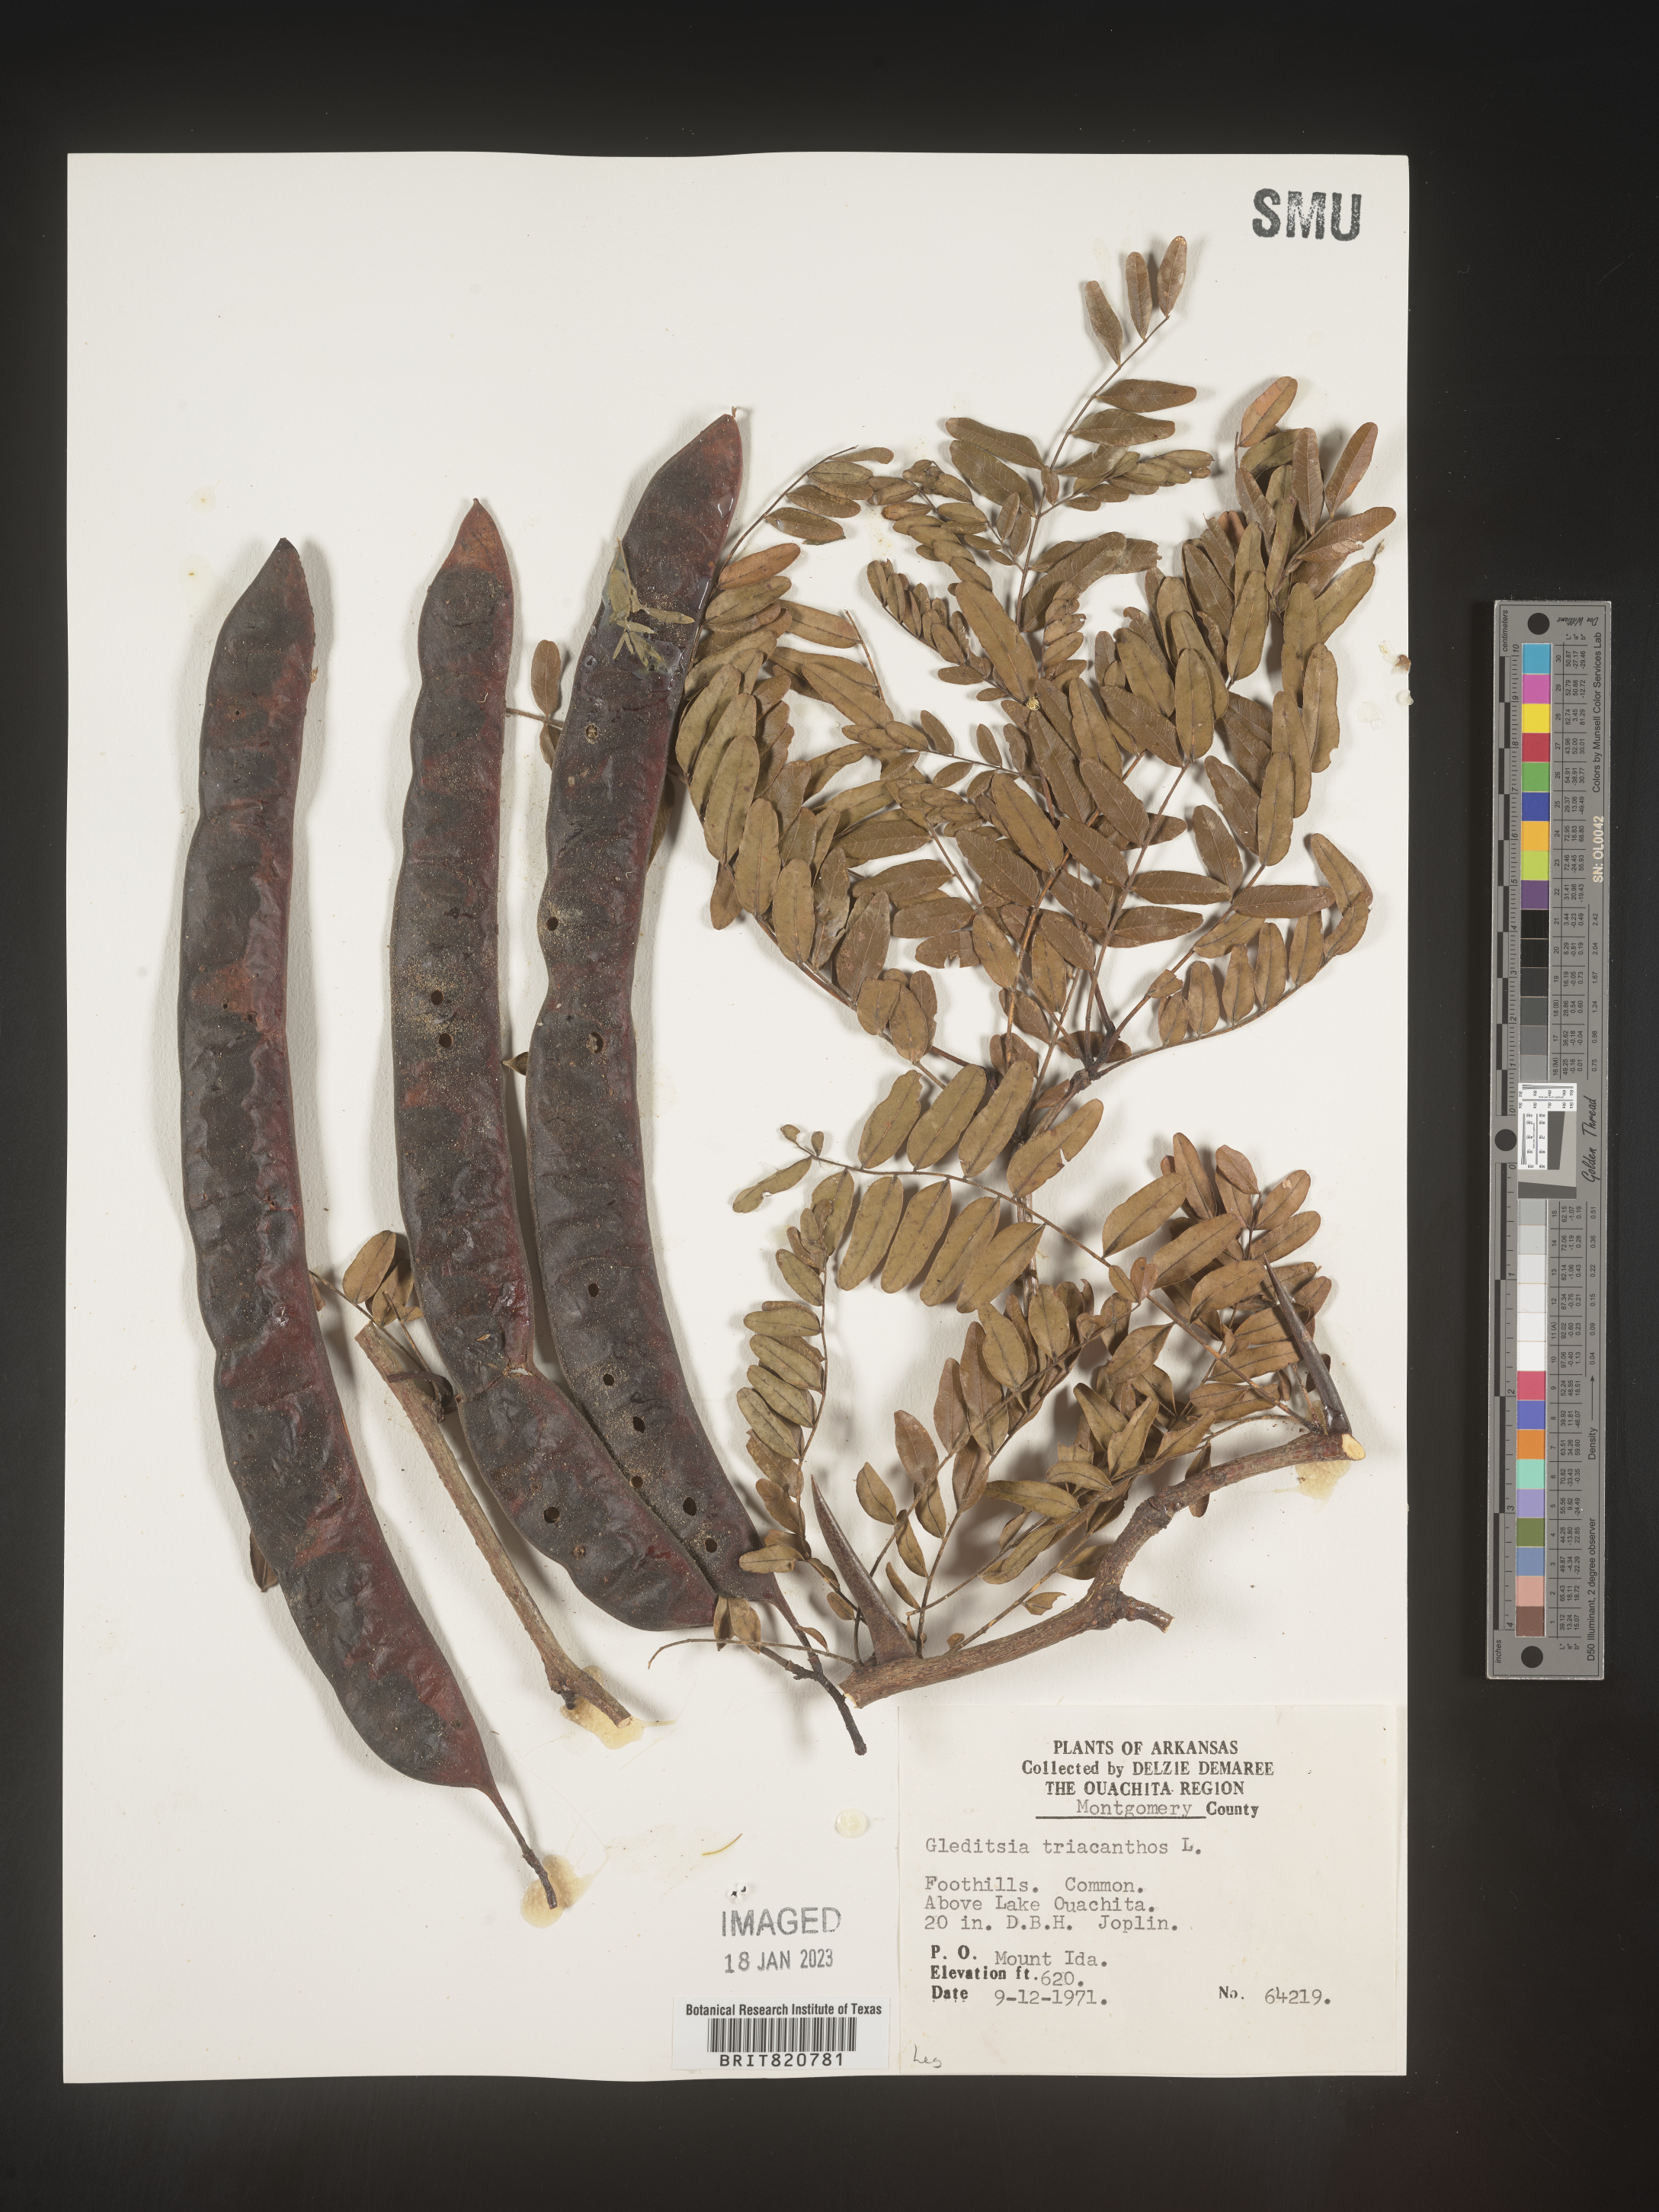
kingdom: Plantae
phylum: Tracheophyta
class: Magnoliopsida
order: Fabales
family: Fabaceae
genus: Gleditsia
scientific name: Gleditsia triacanthos
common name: Common honeylocust
